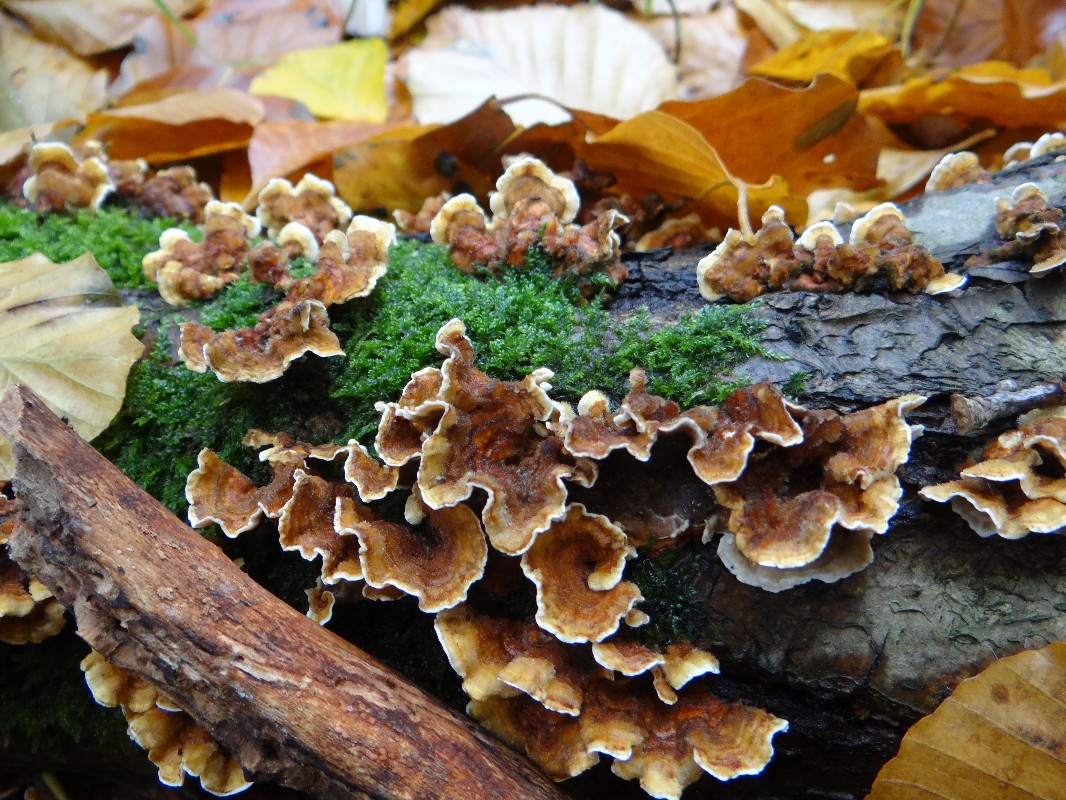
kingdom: Fungi
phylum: Basidiomycota
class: Agaricomycetes
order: Russulales
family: Stereaceae
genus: Stereum
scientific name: Stereum hirsutum
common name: håret lædersvamp
